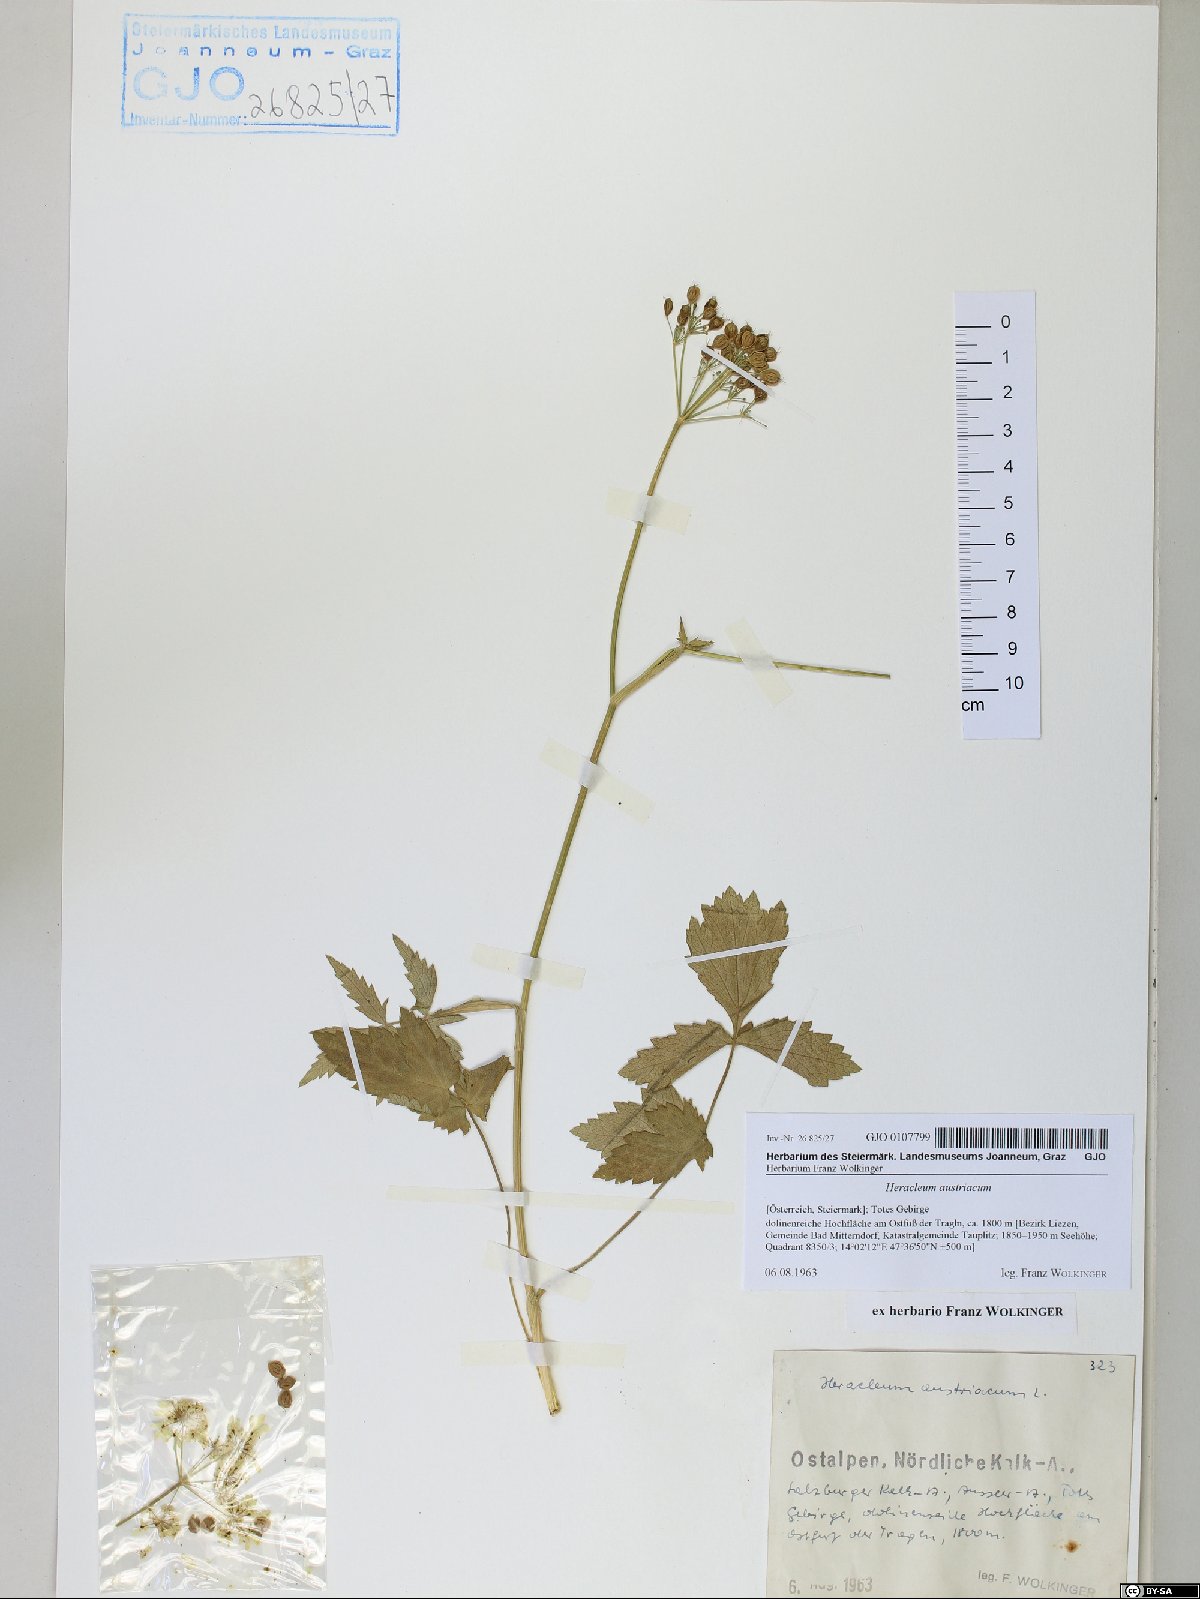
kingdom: Plantae
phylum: Tracheophyta
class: Magnoliopsida
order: Apiales
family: Apiaceae
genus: Heracleum
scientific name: Heracleum austriacum
